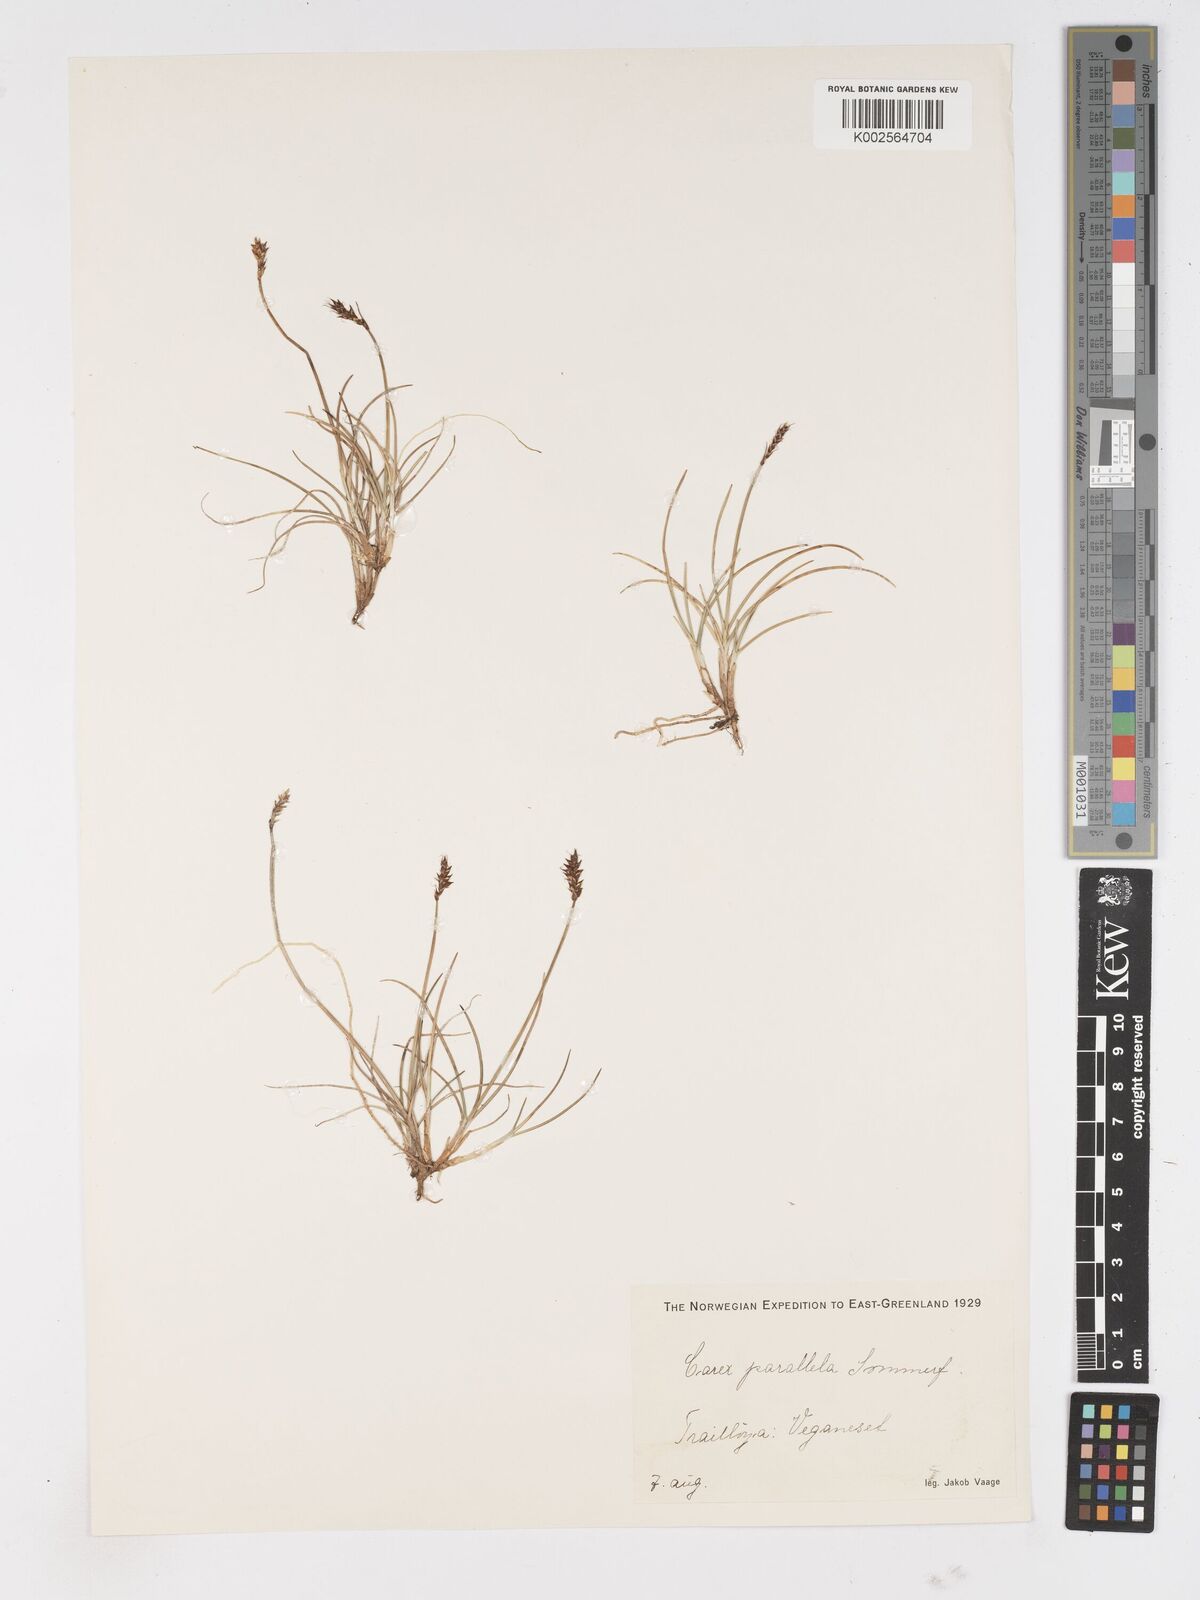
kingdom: Plantae
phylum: Tracheophyta
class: Liliopsida
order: Poales
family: Cyperaceae
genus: Carex
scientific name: Carex parallela
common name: Parallel sedge
